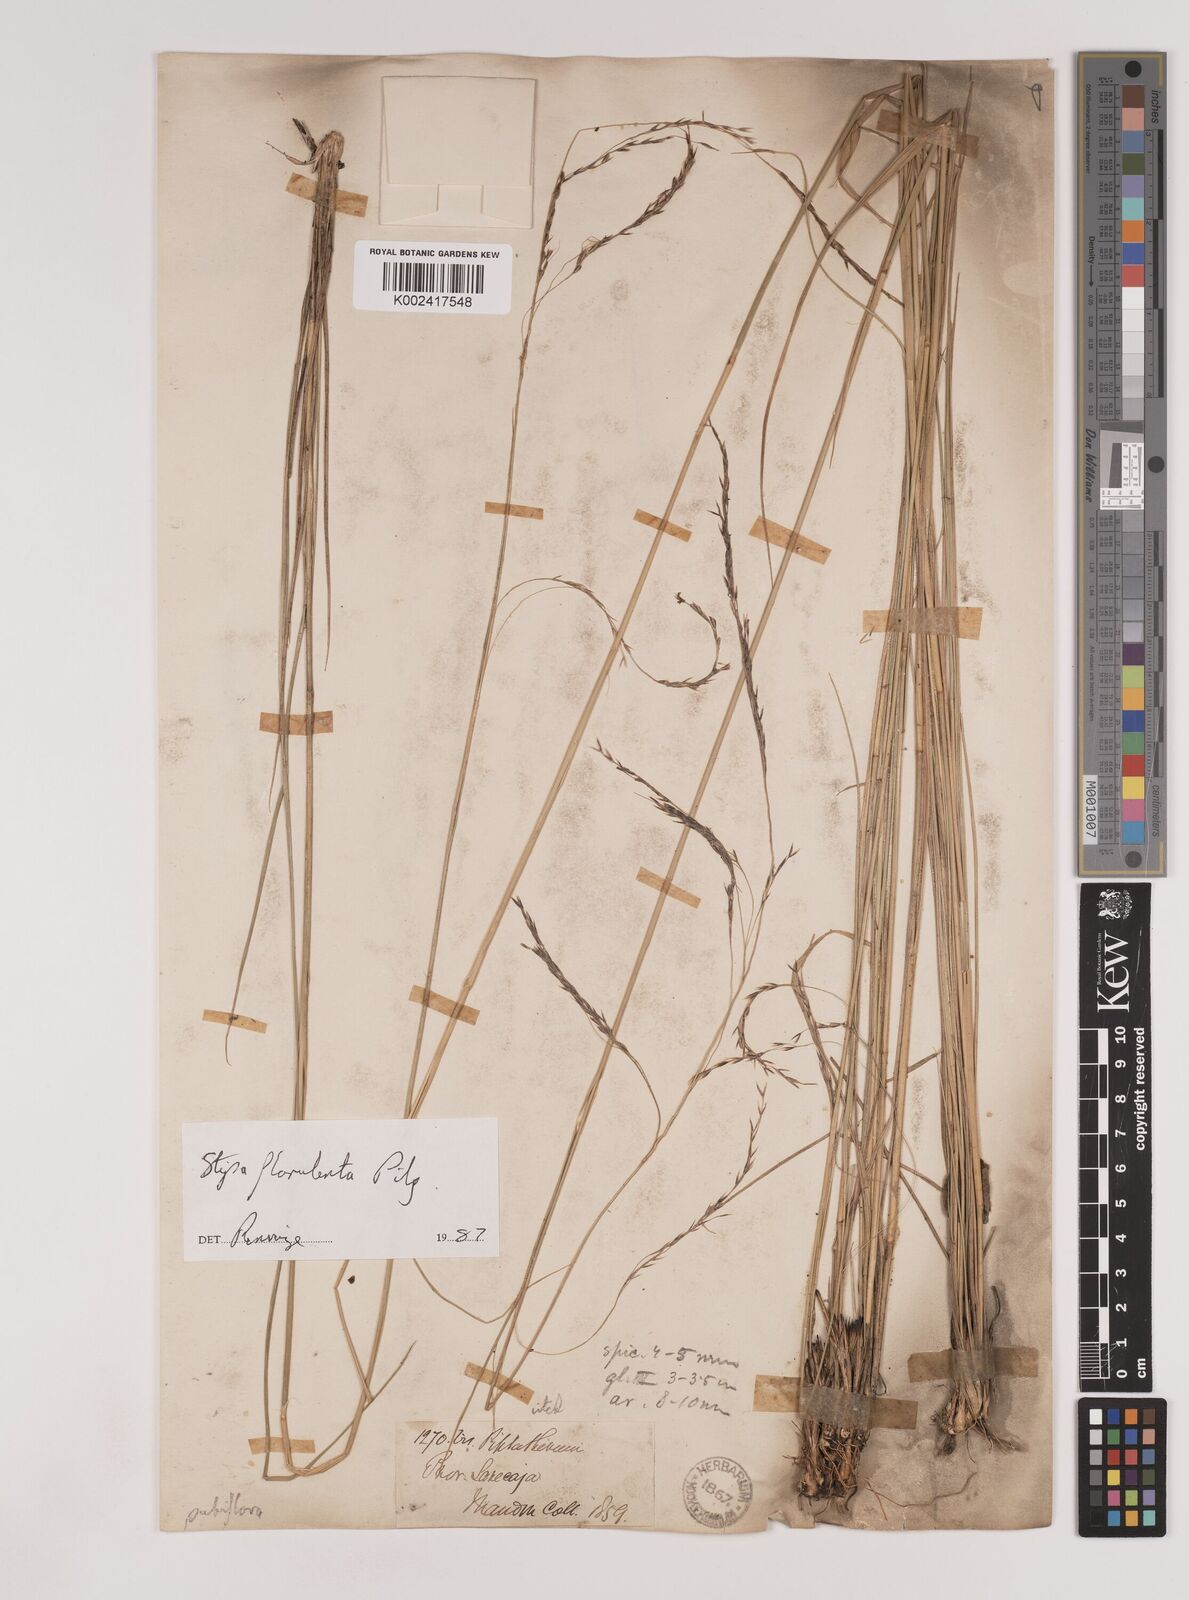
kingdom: Plantae
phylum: Tracheophyta
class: Liliopsida
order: Poales
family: Poaceae
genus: Nassella
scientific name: Nassella pubiflora
